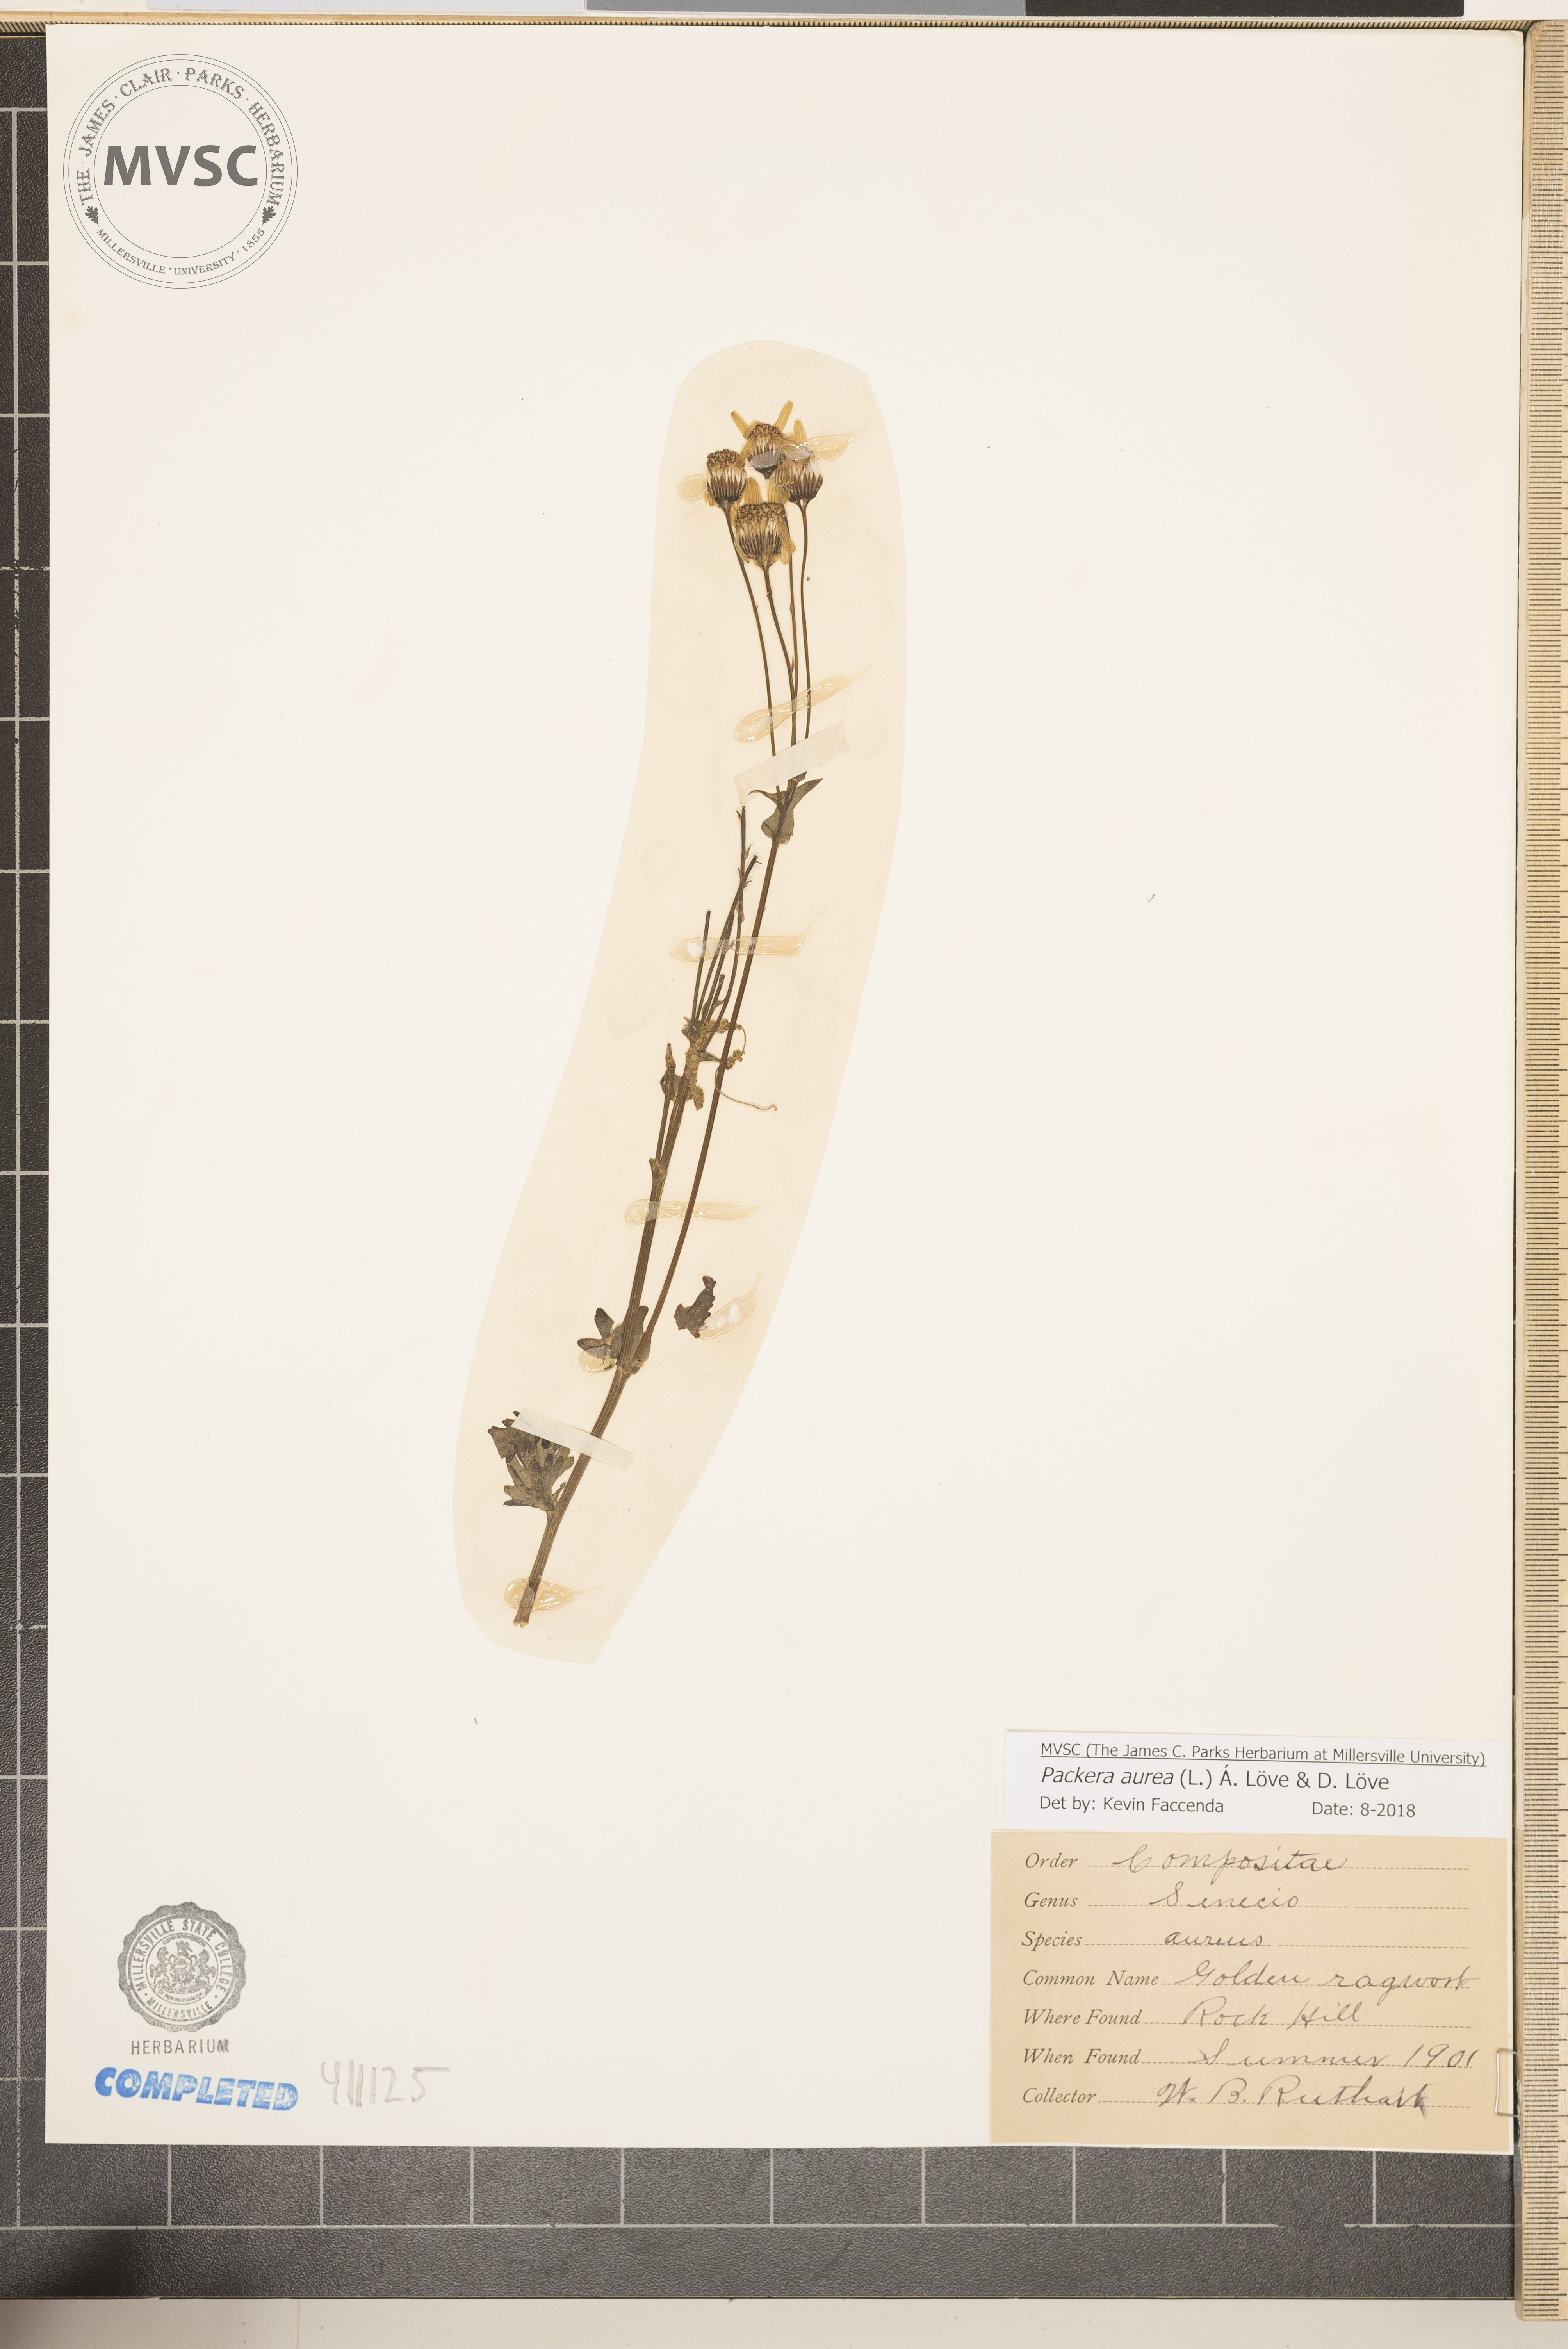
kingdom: Plantae
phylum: Tracheophyta
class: Magnoliopsida
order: Asterales
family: Asteraceae
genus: Packera
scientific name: Packera aurea
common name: Golden groundsel
